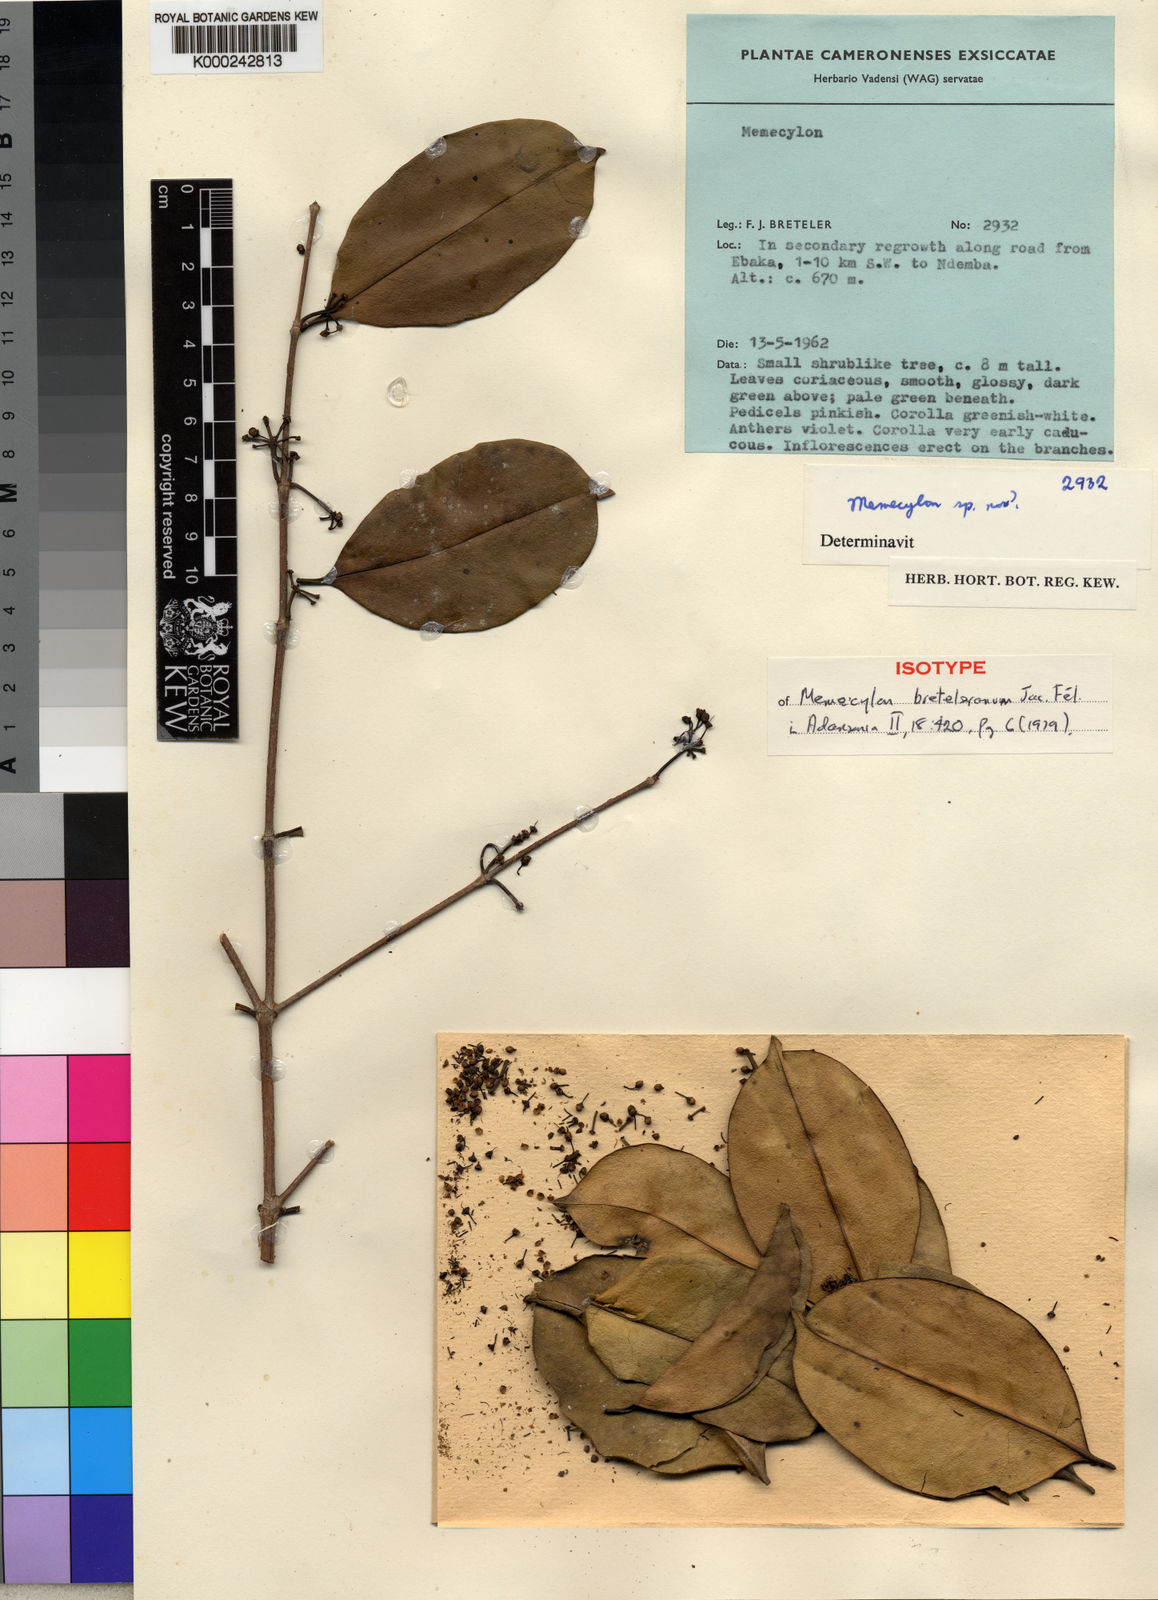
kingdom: Plantae
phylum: Tracheophyta
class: Magnoliopsida
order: Myrtales
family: Melastomataceae
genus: Memecylon
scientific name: Memecylon
